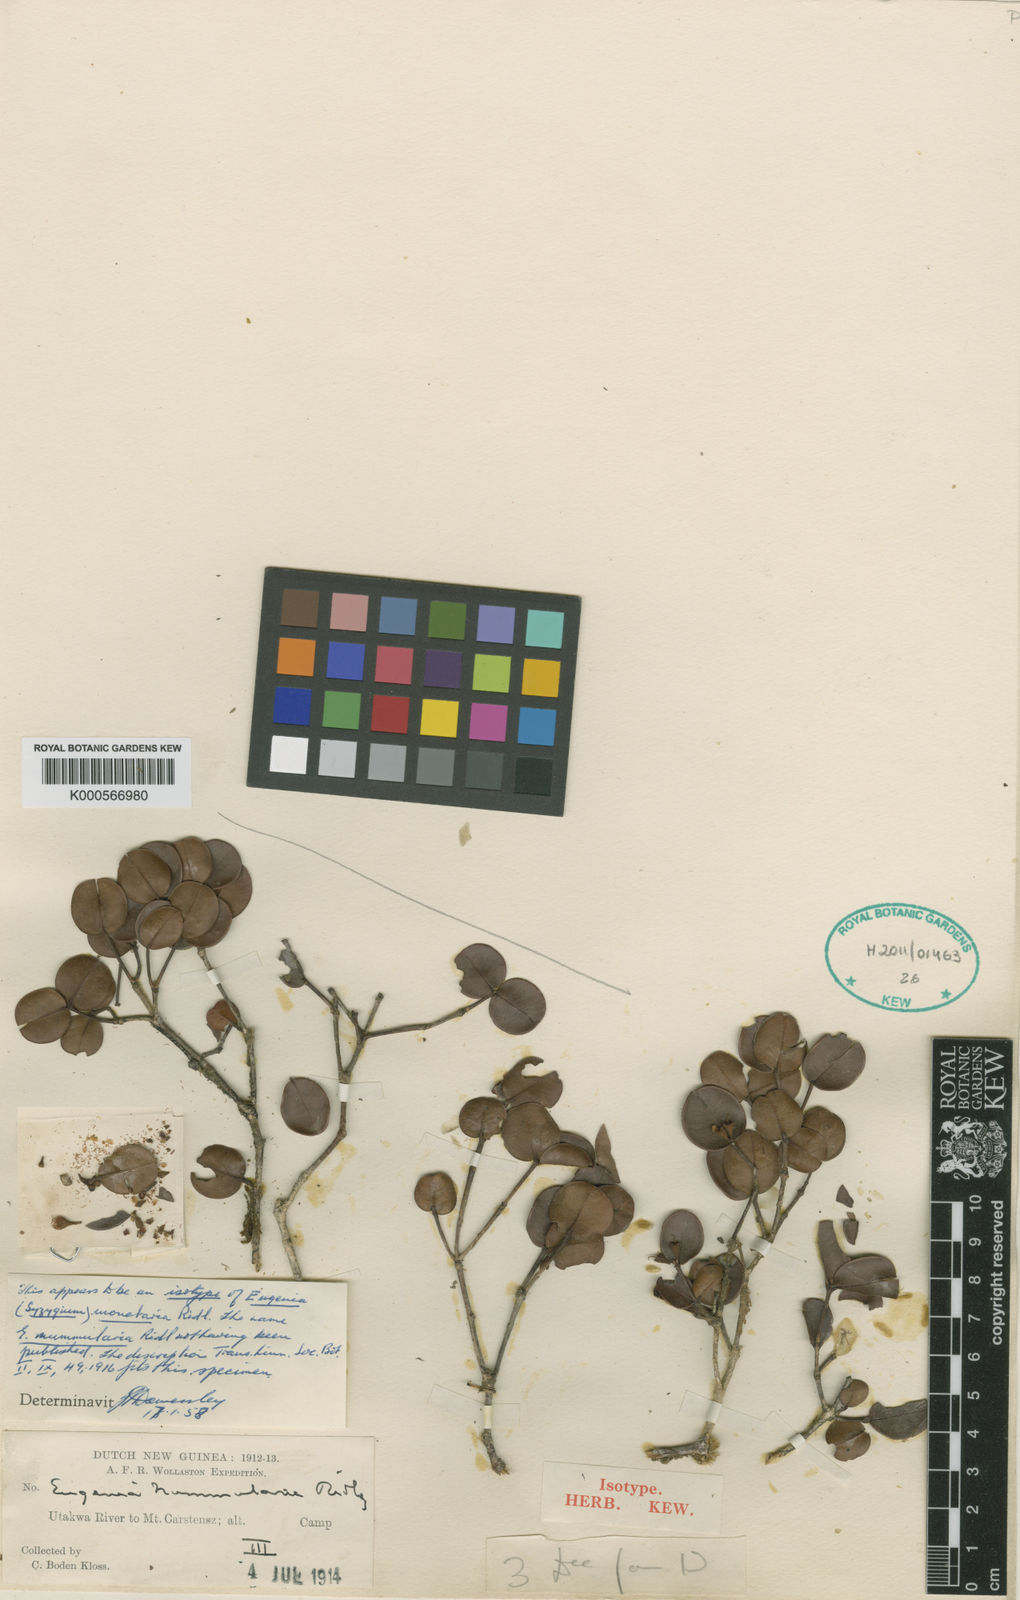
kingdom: Plantae
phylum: Tracheophyta
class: Magnoliopsida
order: Myrtales
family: Myrtaceae
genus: Syzygium
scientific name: Syzygium monetarium
